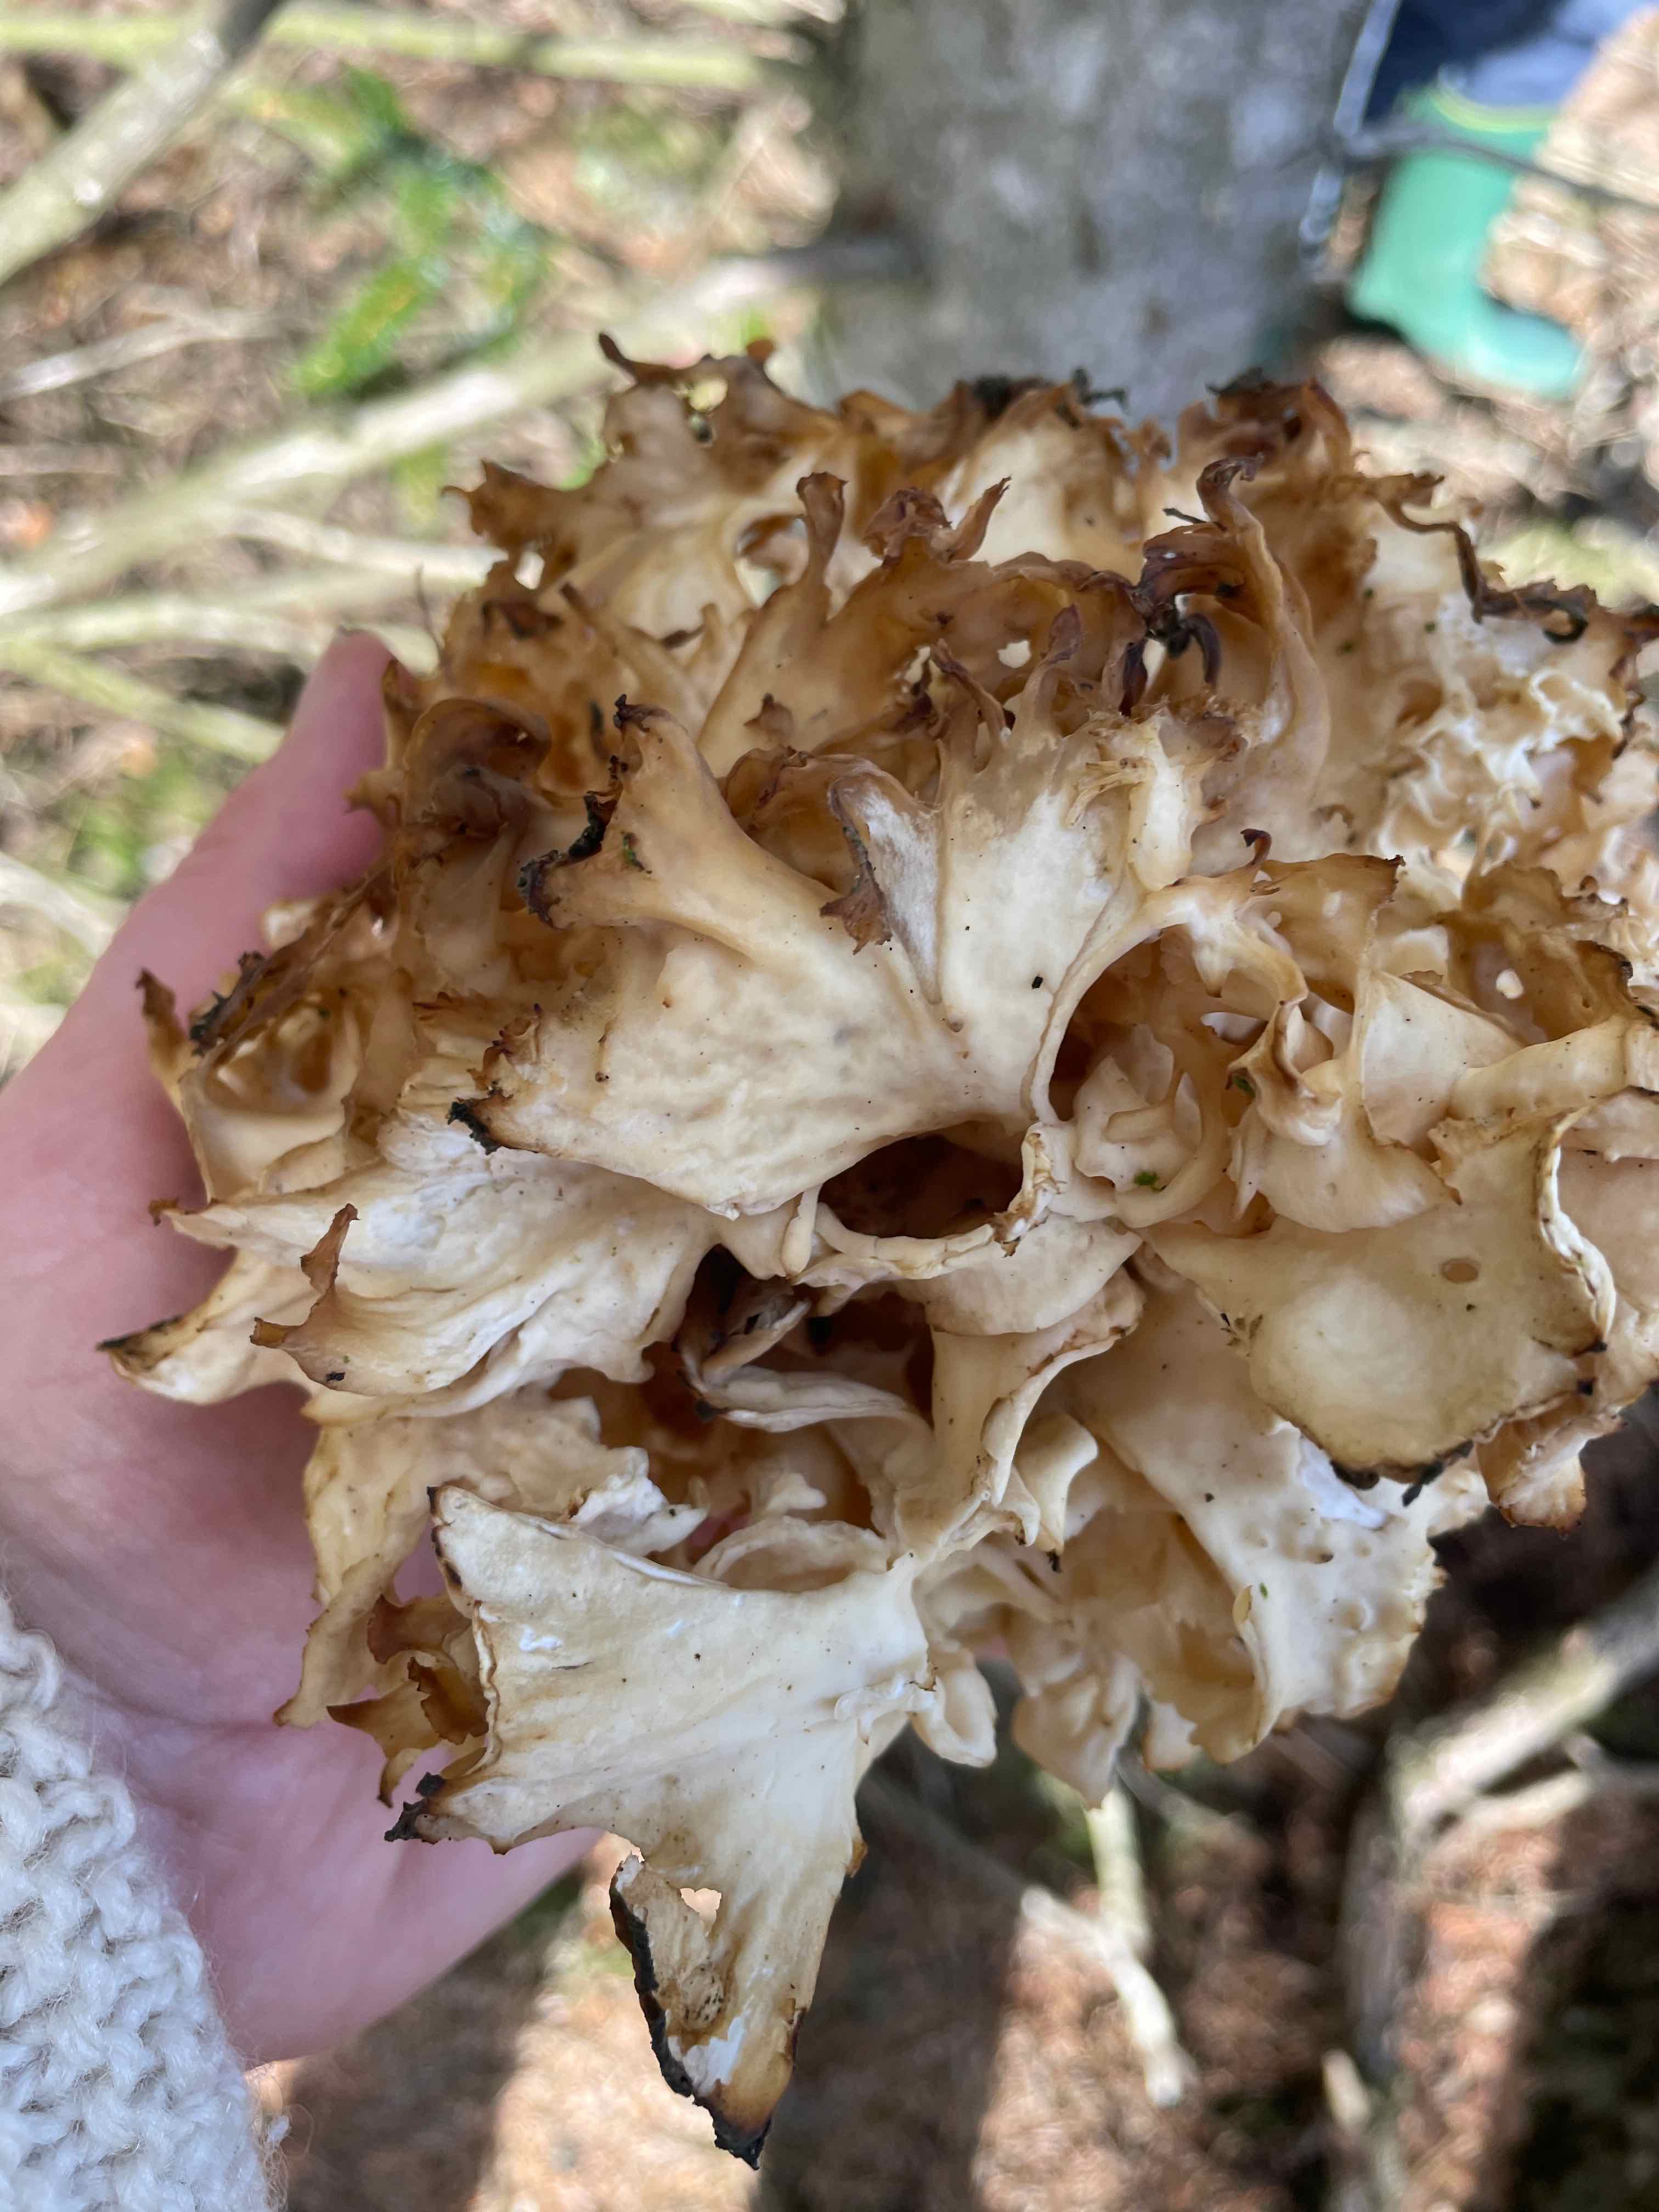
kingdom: Fungi
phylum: Basidiomycota
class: Agaricomycetes
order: Polyporales
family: Sparassidaceae
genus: Sparassis
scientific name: Sparassis crispa
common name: kruset blomkålssvamp
